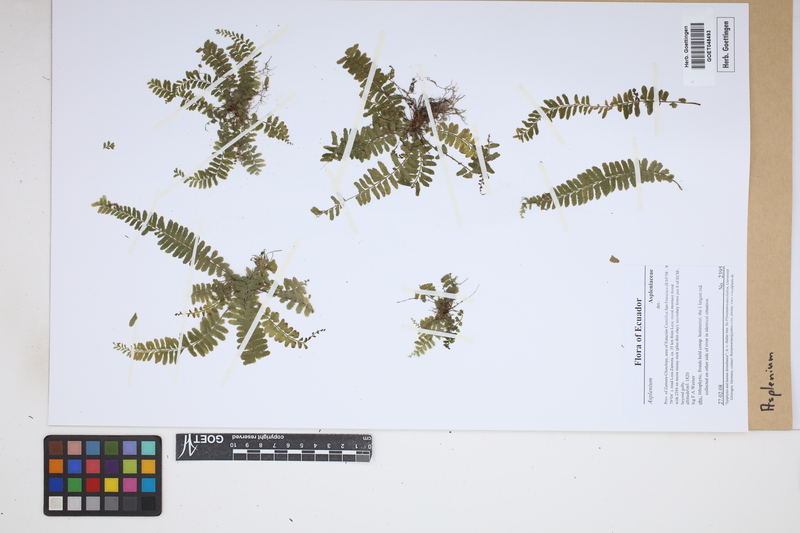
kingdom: Plantae
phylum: Tracheophyta
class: Polypodiopsida
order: Polypodiales
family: Aspleniaceae
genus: Asplenium
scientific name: Asplenium
